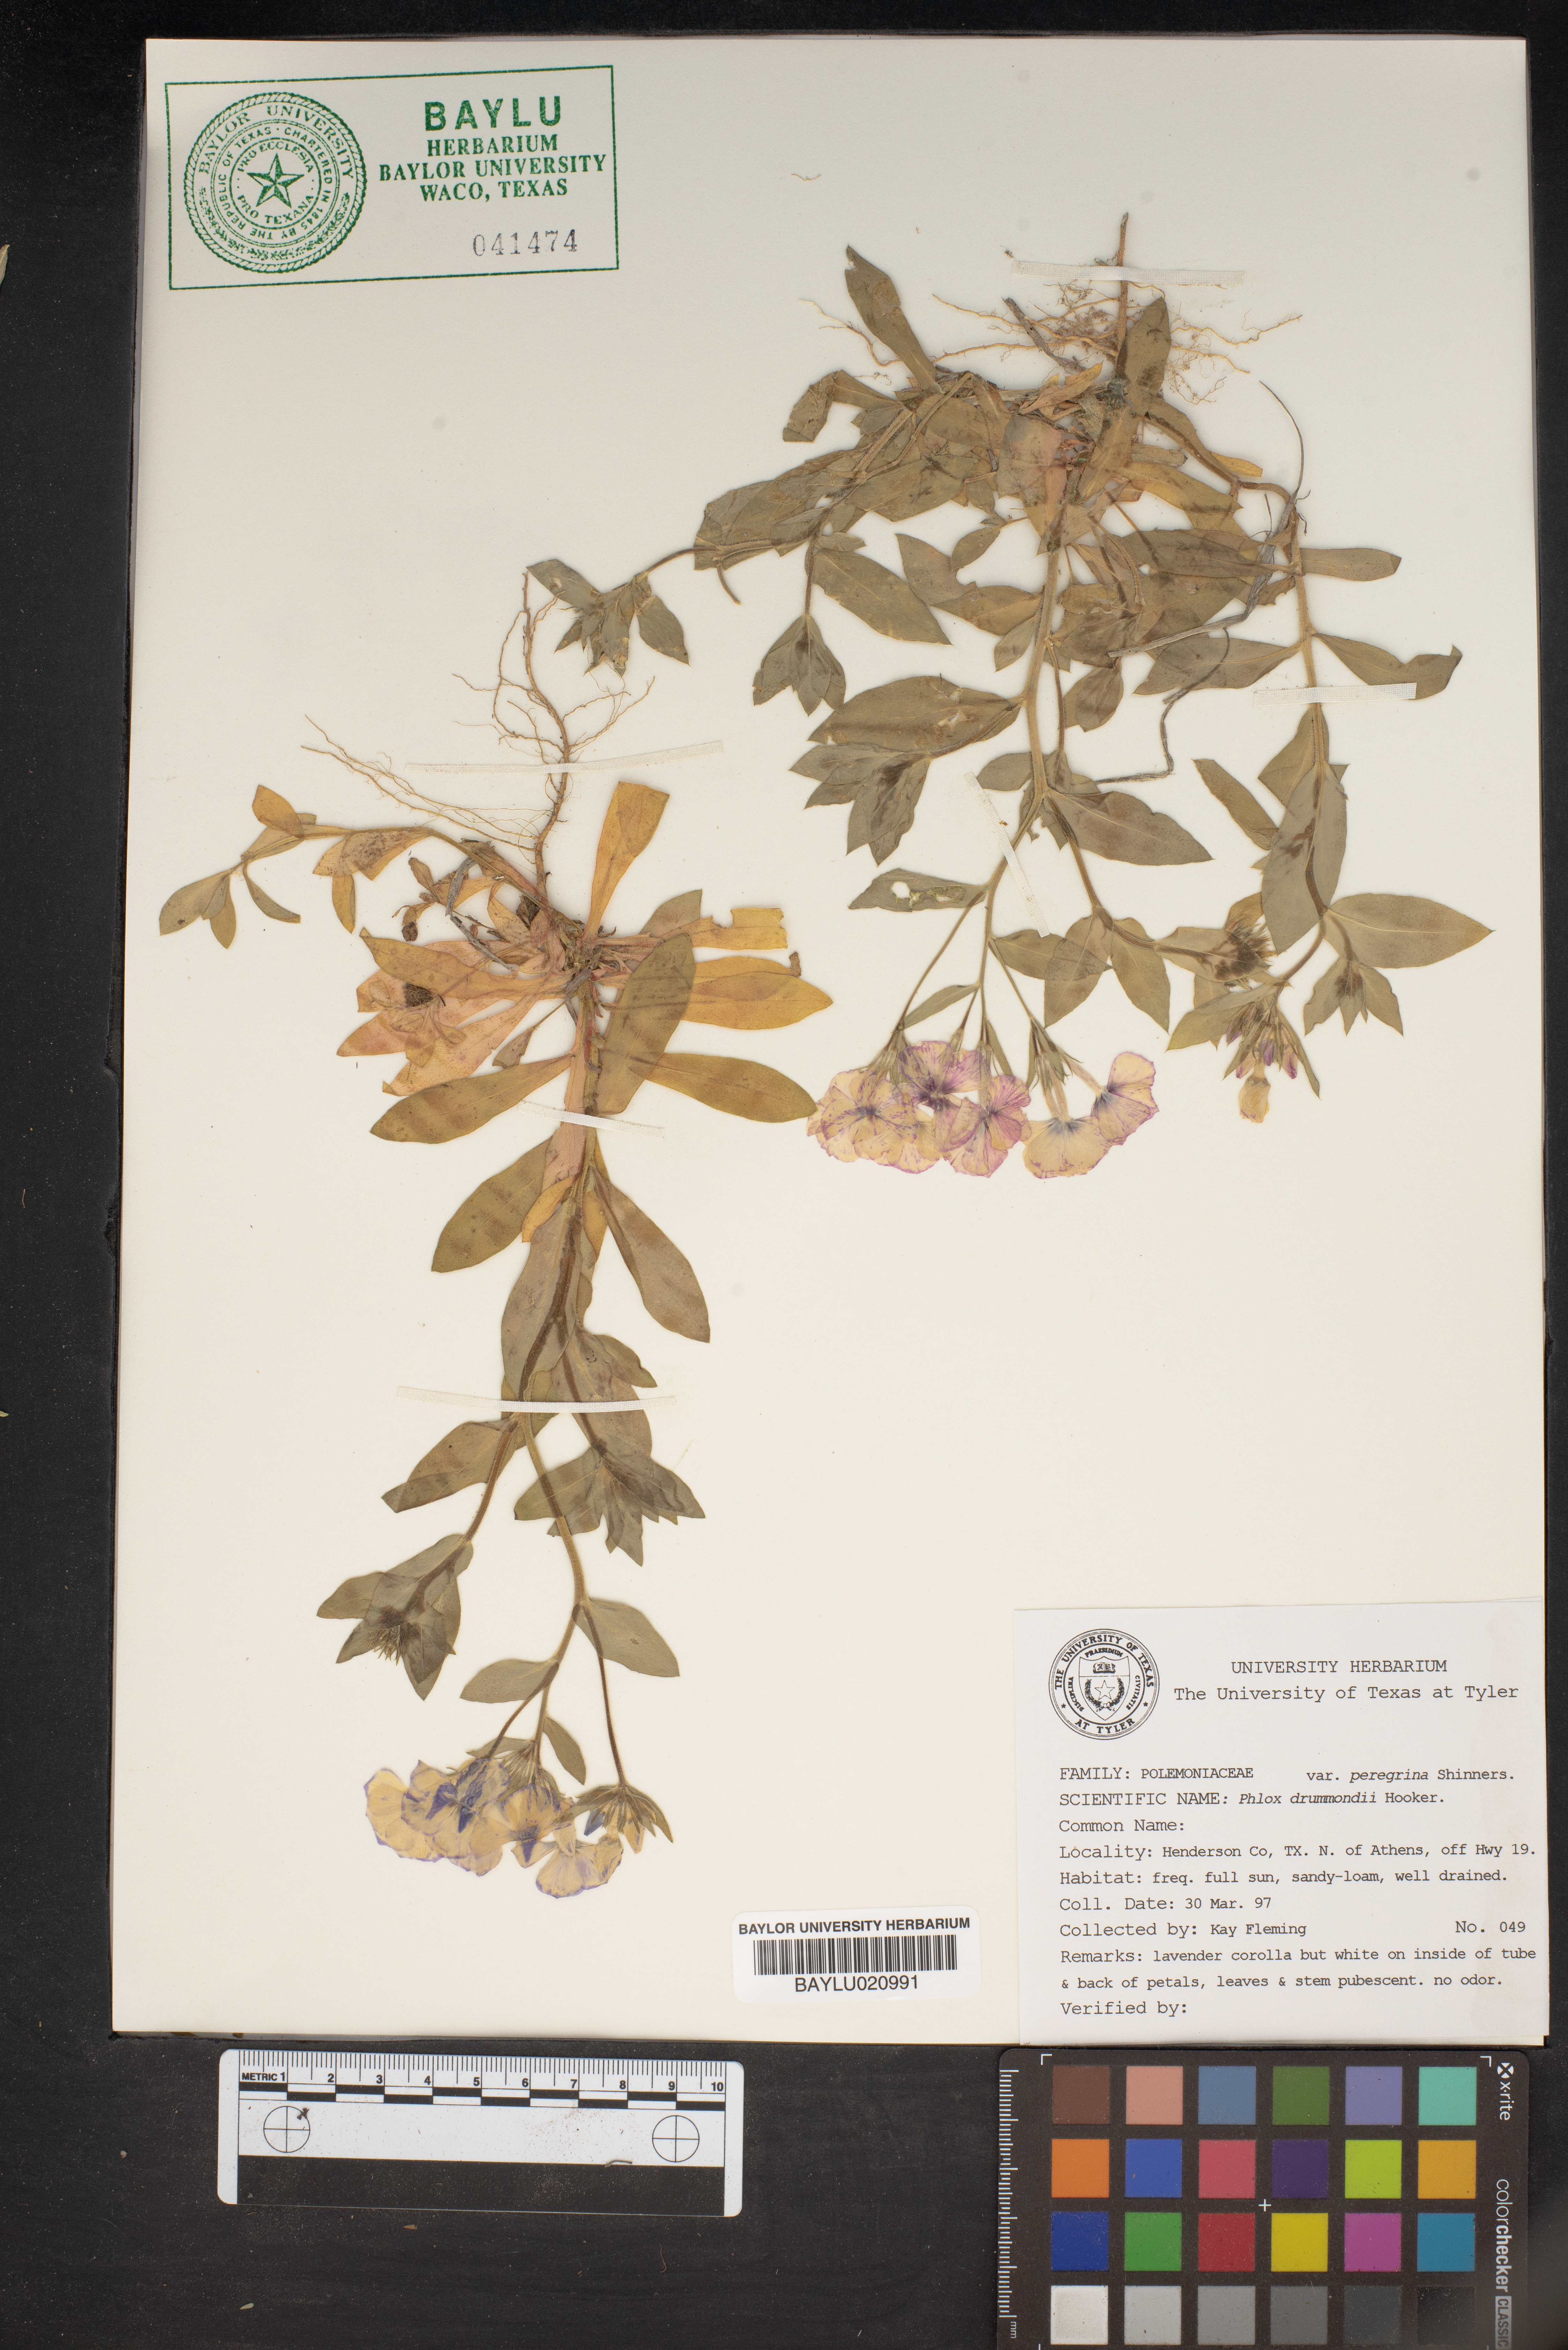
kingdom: Plantae
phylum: Tracheophyta
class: Magnoliopsida
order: Ericales
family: Polemoniaceae
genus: Phlox
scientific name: Phlox drummondii
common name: Drummond's phlox
